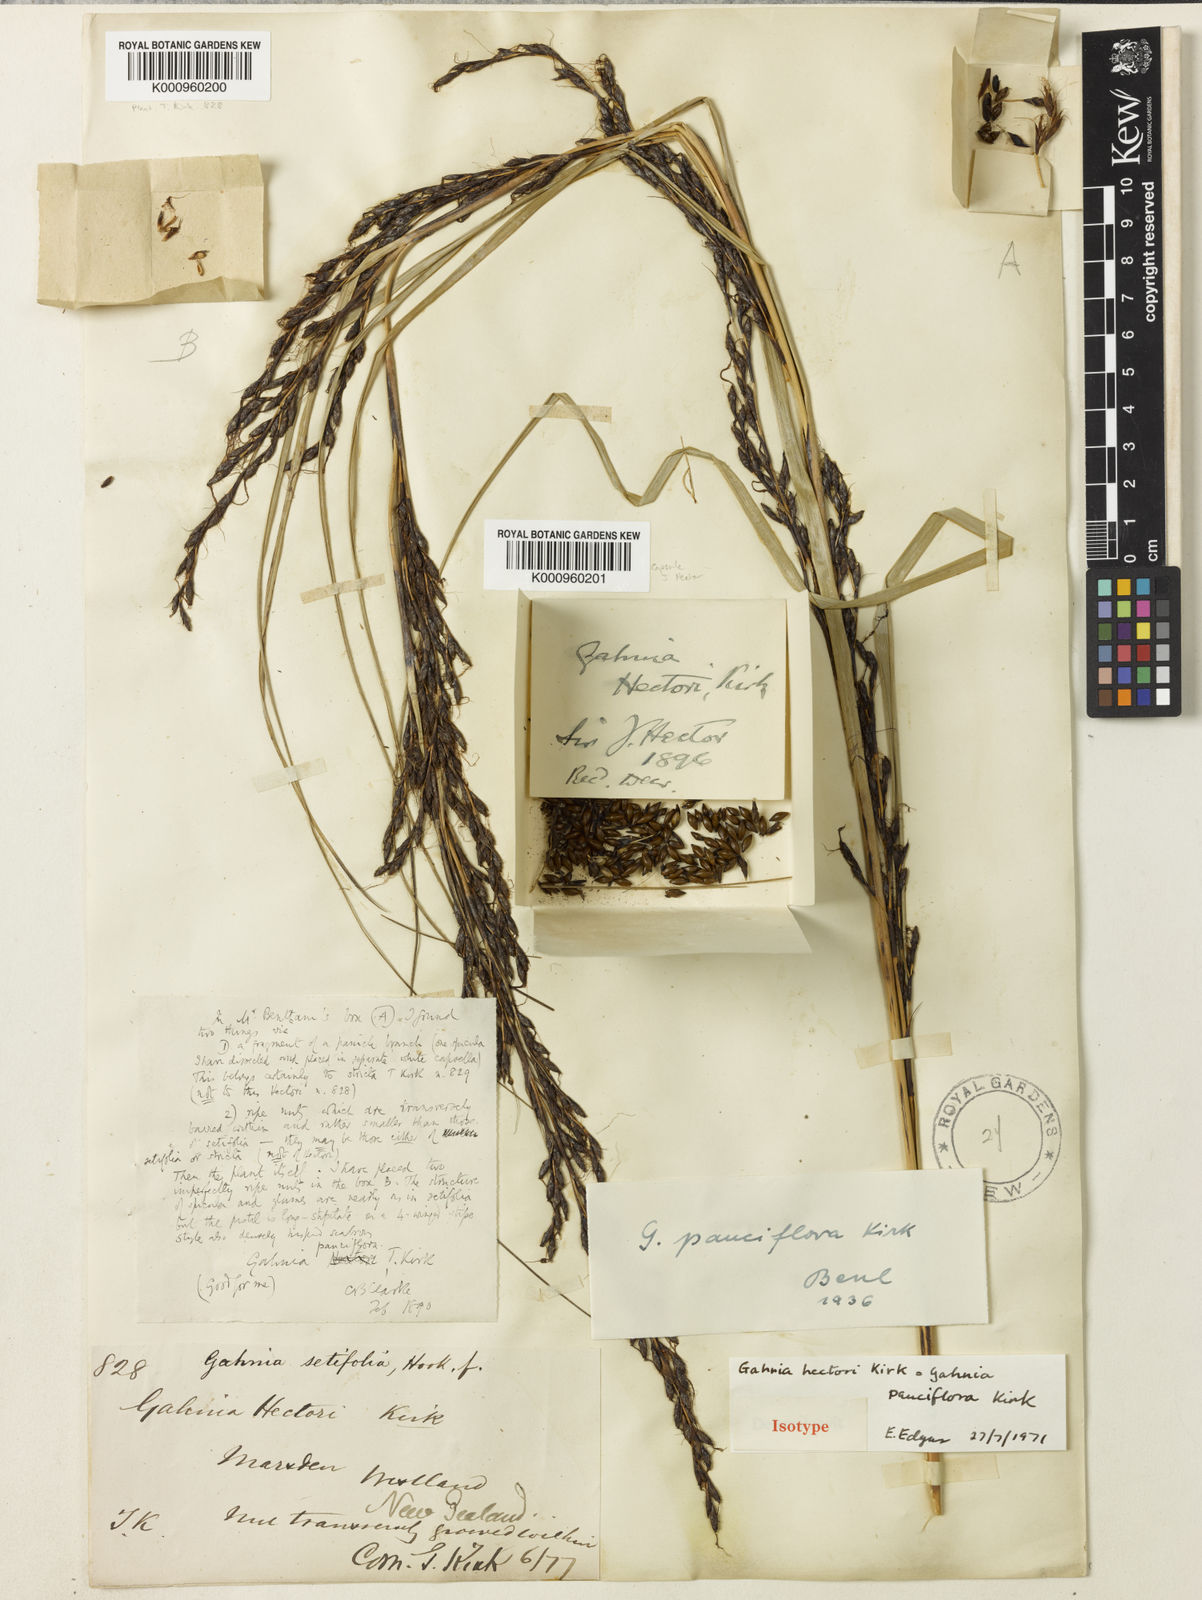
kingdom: Plantae
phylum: Tracheophyta
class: Liliopsida
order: Poales
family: Cyperaceae
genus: Gahnia
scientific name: Gahnia pauciflora
